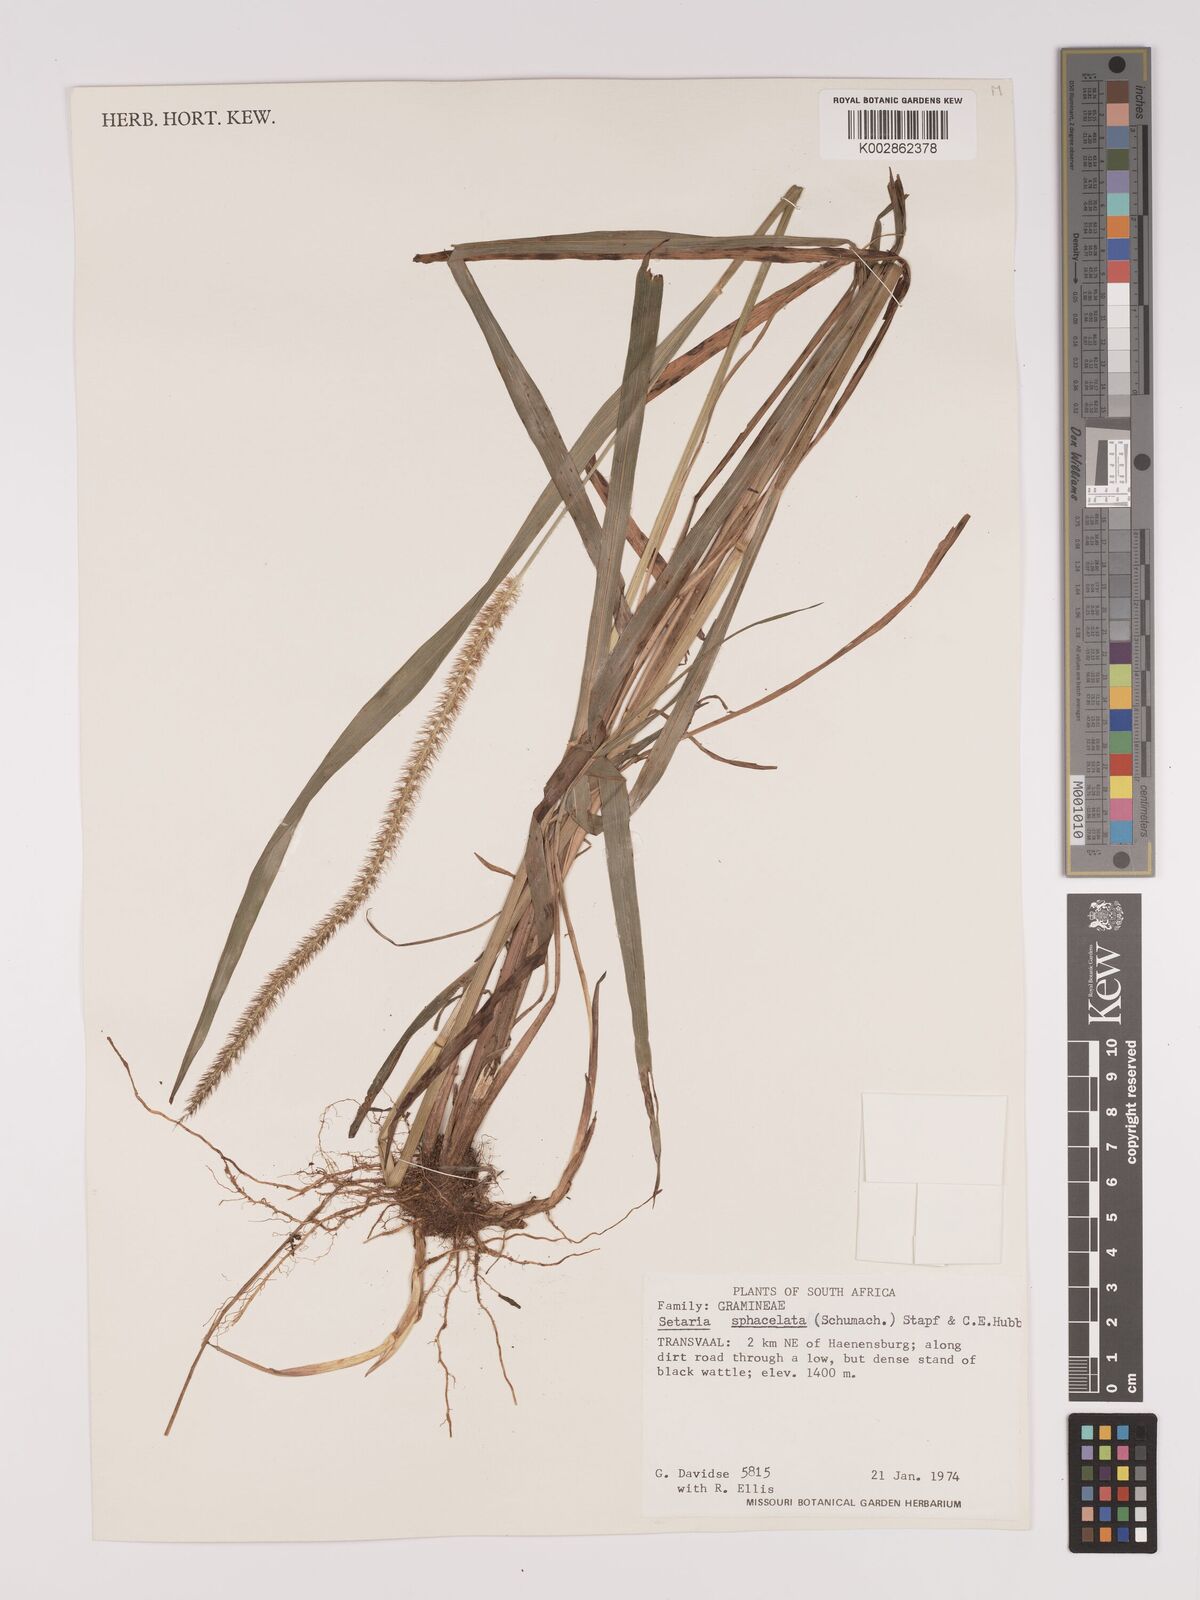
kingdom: Plantae
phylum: Tracheophyta
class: Liliopsida
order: Poales
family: Poaceae
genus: Setaria
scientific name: Setaria sphacelata
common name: African bristlegrass
